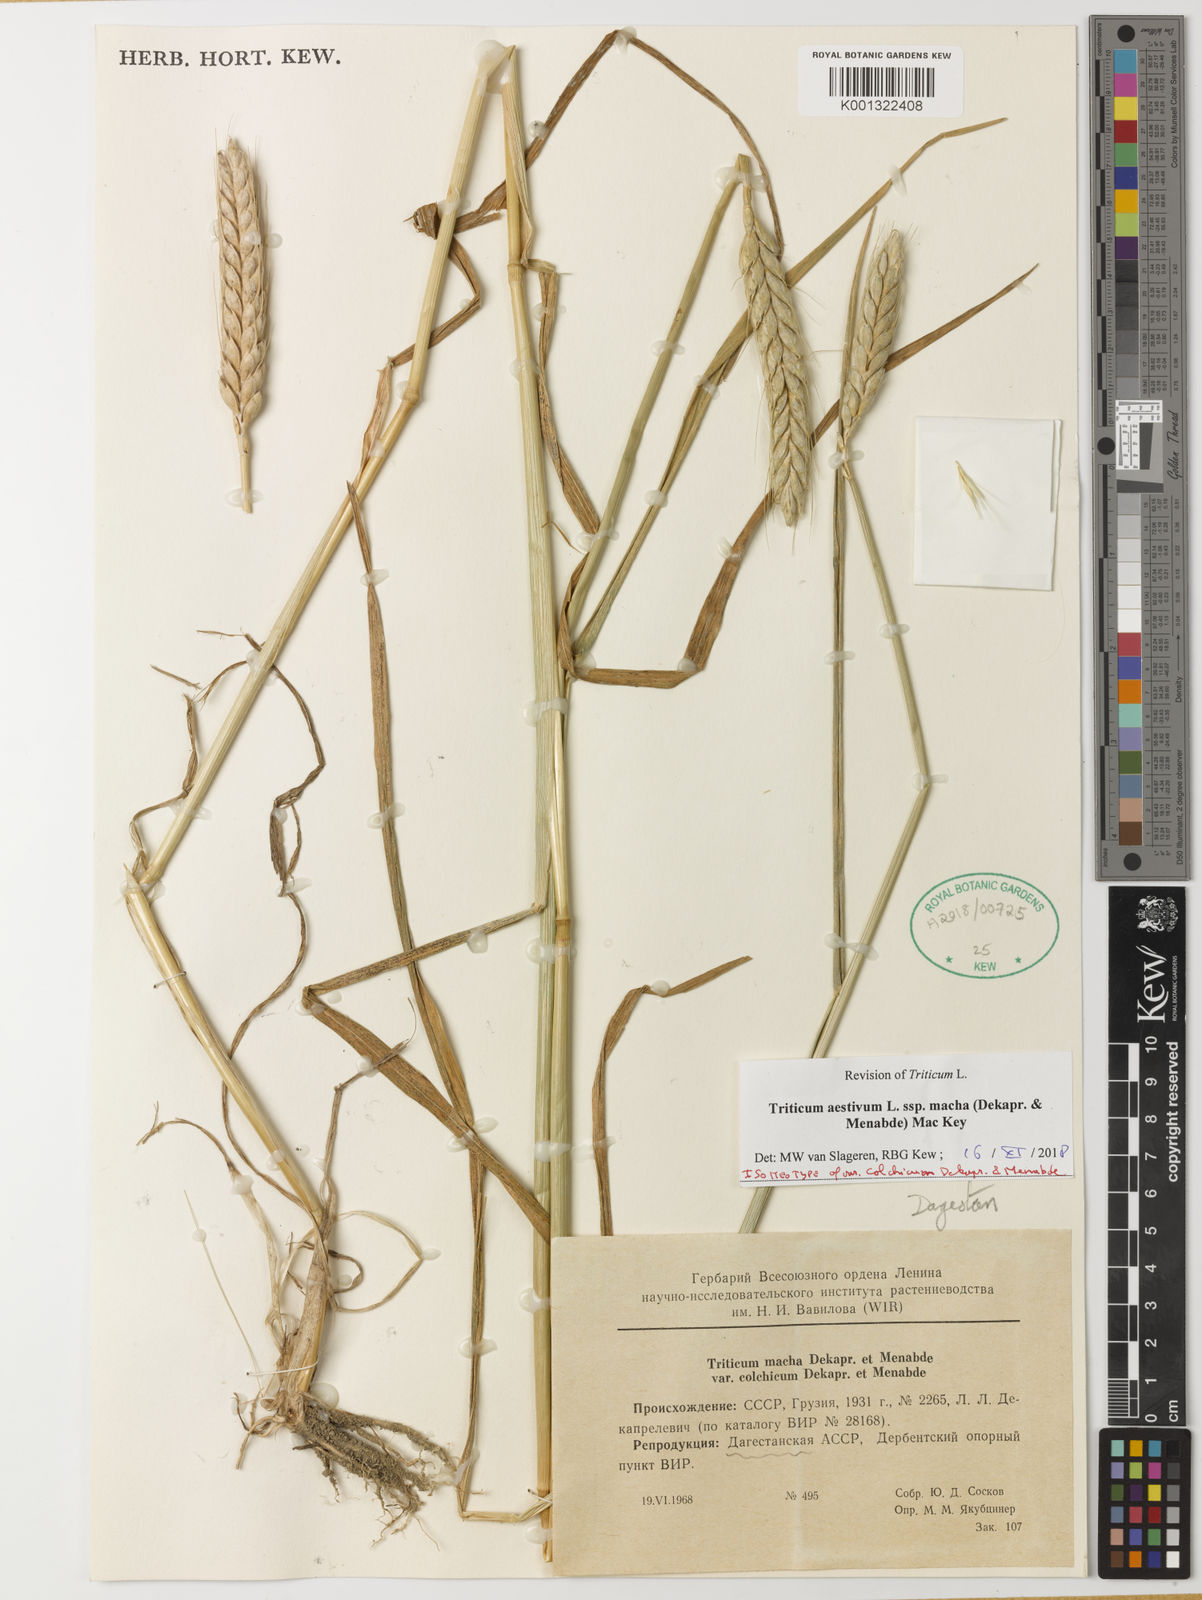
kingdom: Plantae
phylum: Tracheophyta
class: Liliopsida
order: Poales
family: Poaceae
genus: Triticum
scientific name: Triticum aestivum
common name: Common wheat
